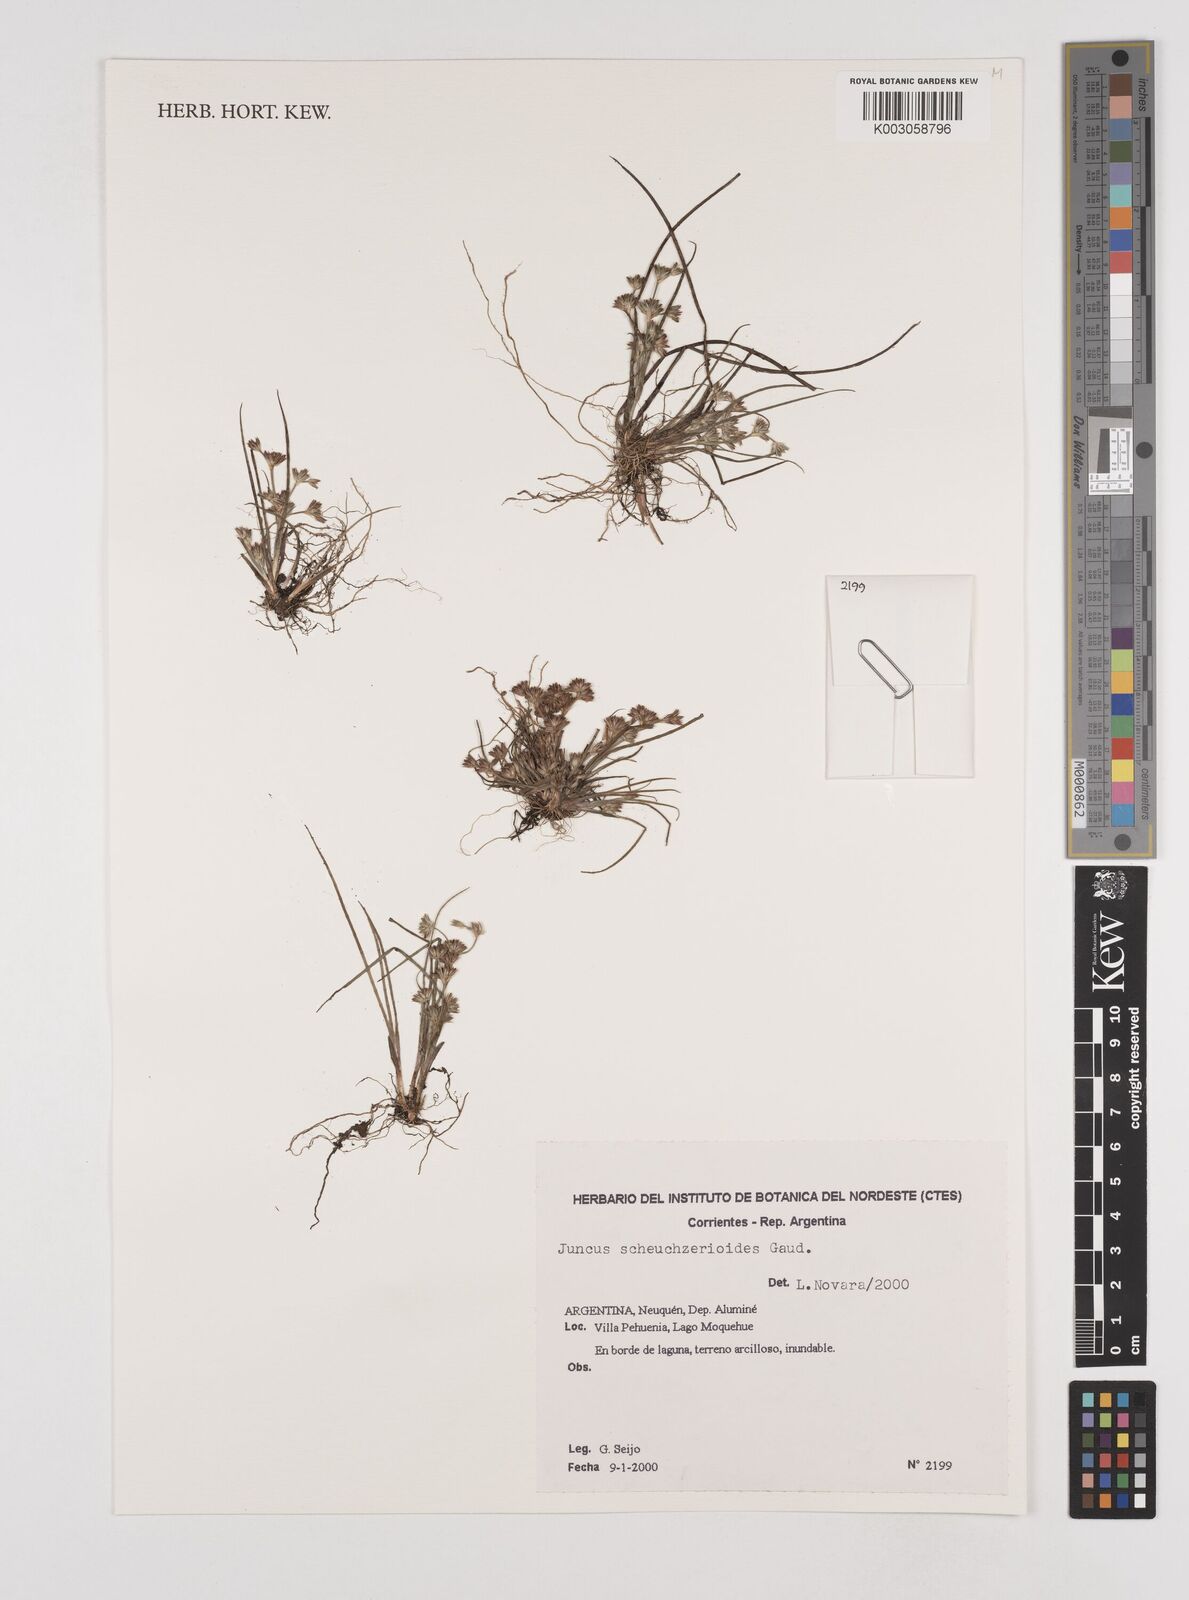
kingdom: Plantae
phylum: Tracheophyta
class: Liliopsida
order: Poales
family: Juncaceae
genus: Juncus
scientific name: Juncus scheuchzerioides
